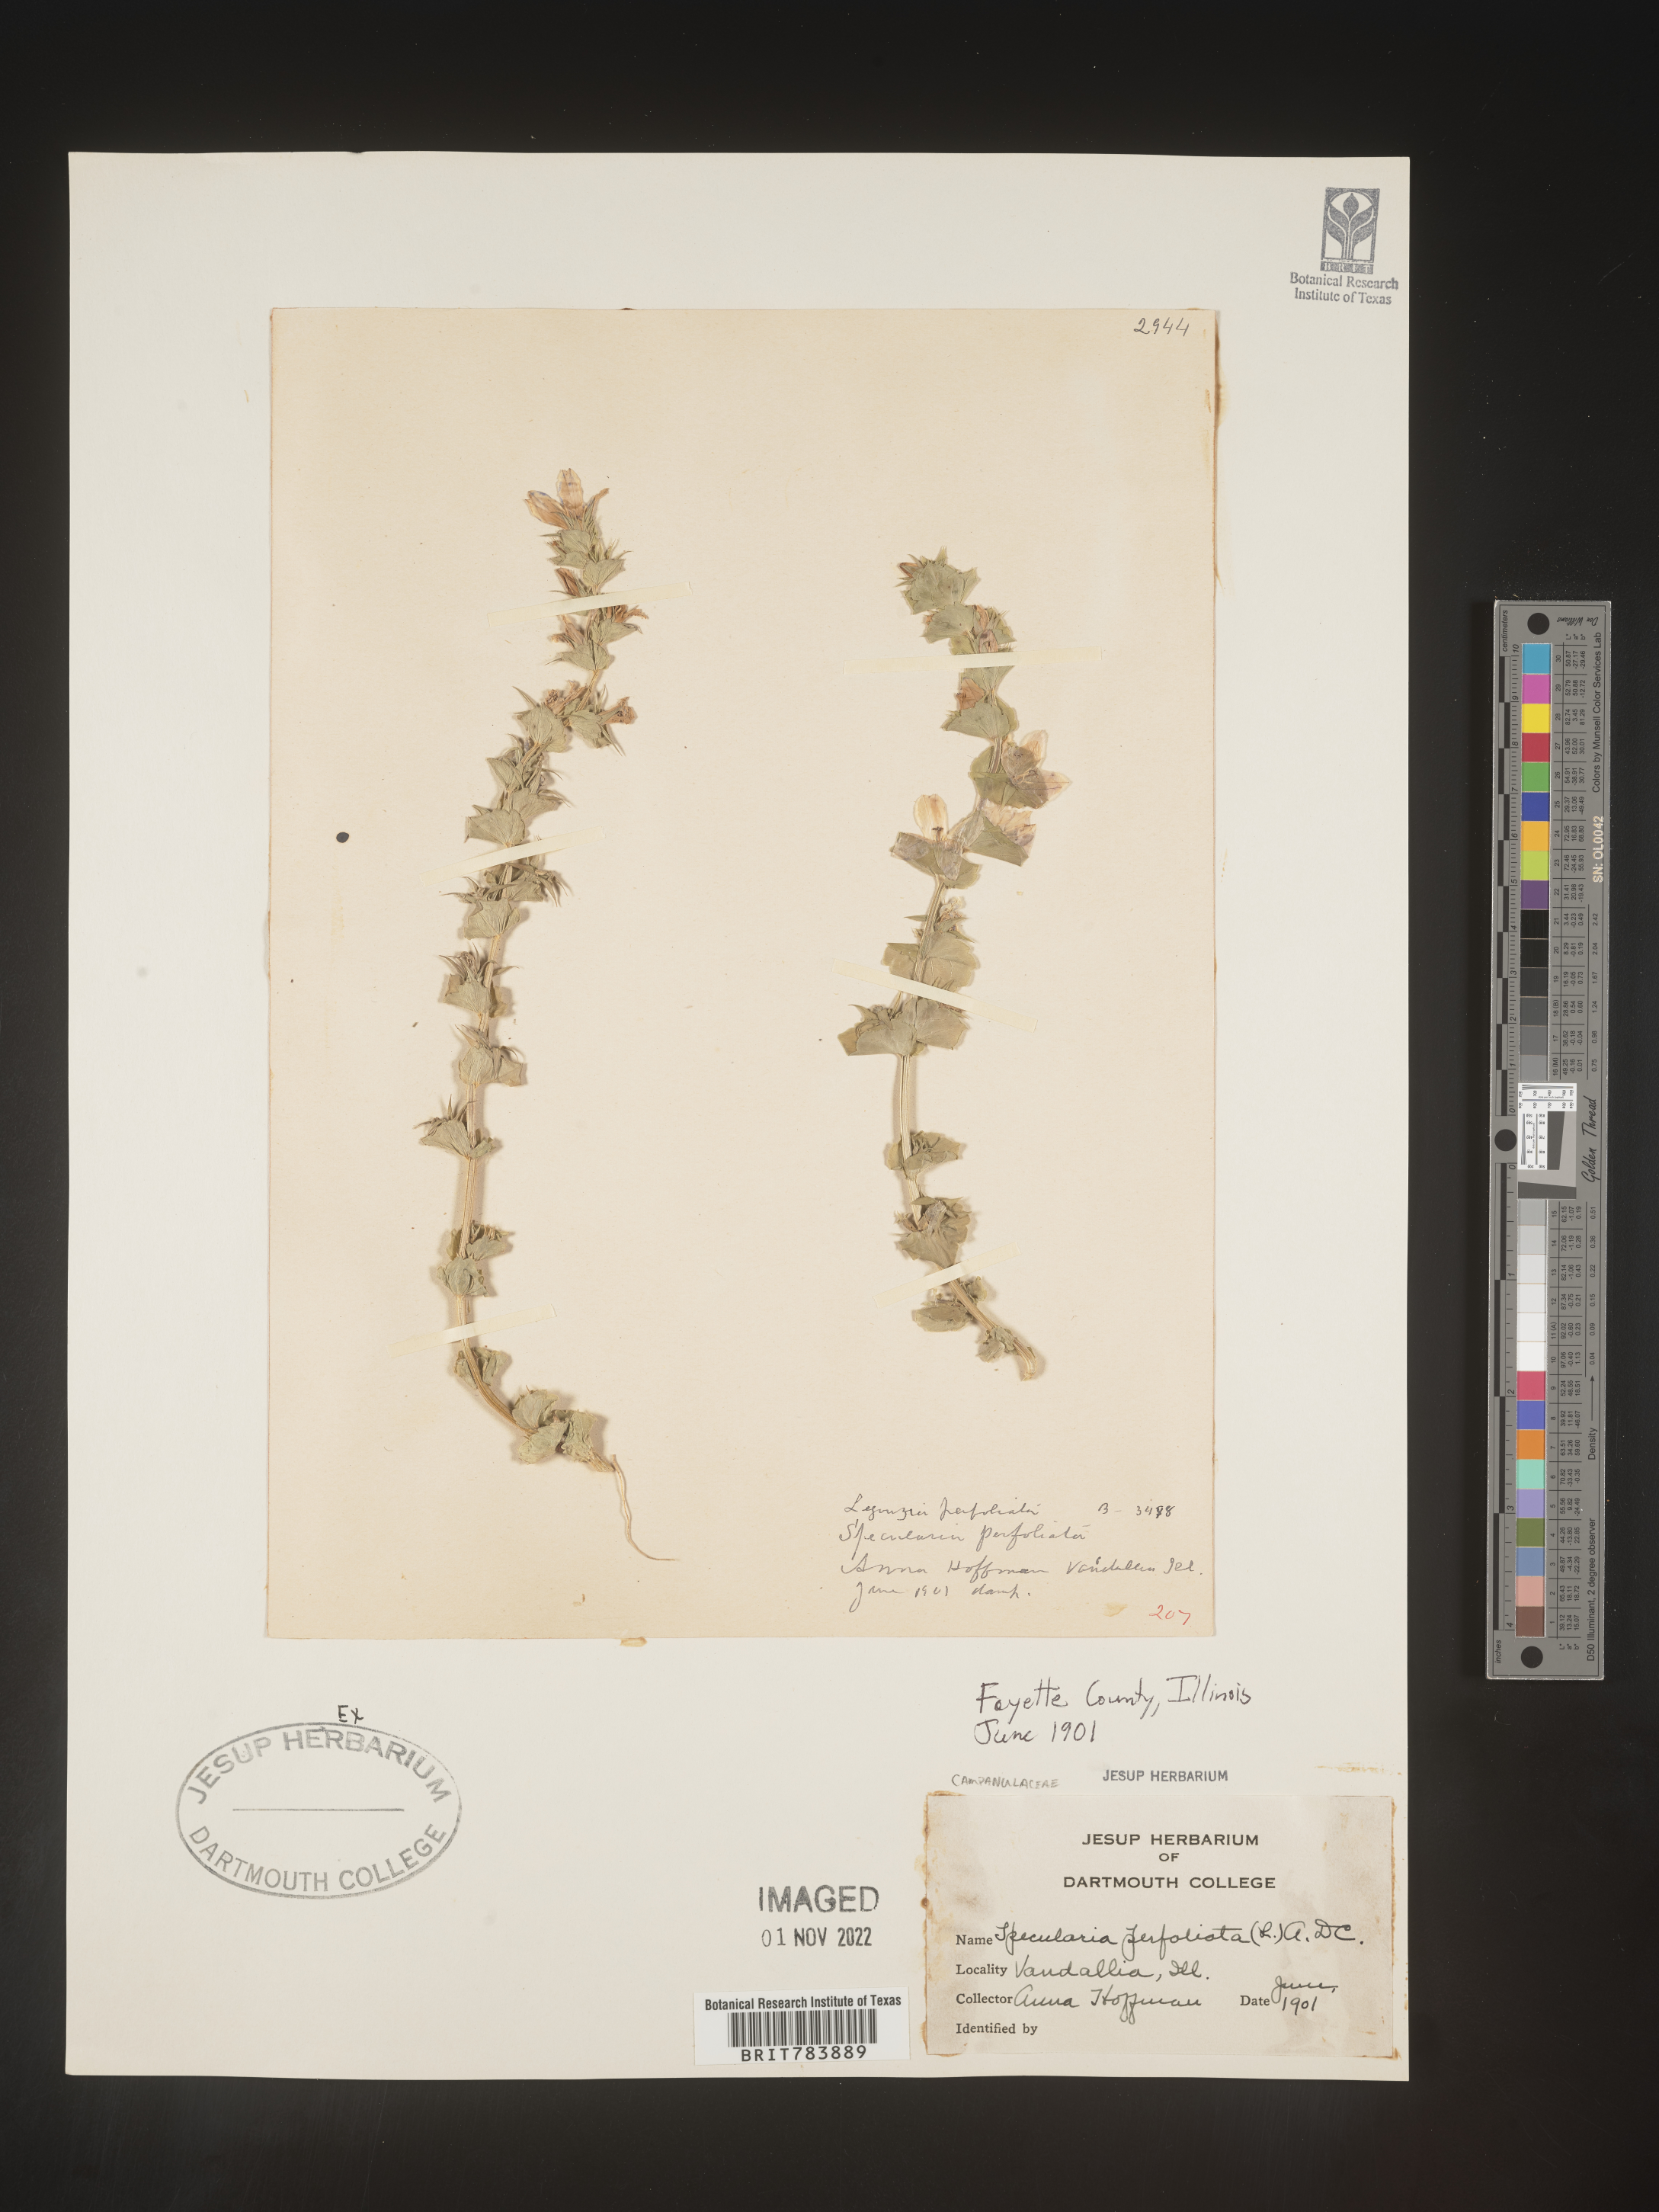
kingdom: Plantae
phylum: Tracheophyta
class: Magnoliopsida
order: Asterales
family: Campanulaceae
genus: Triodanis
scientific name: Triodanis perfoliata
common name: Clasping venus' looking-glass
